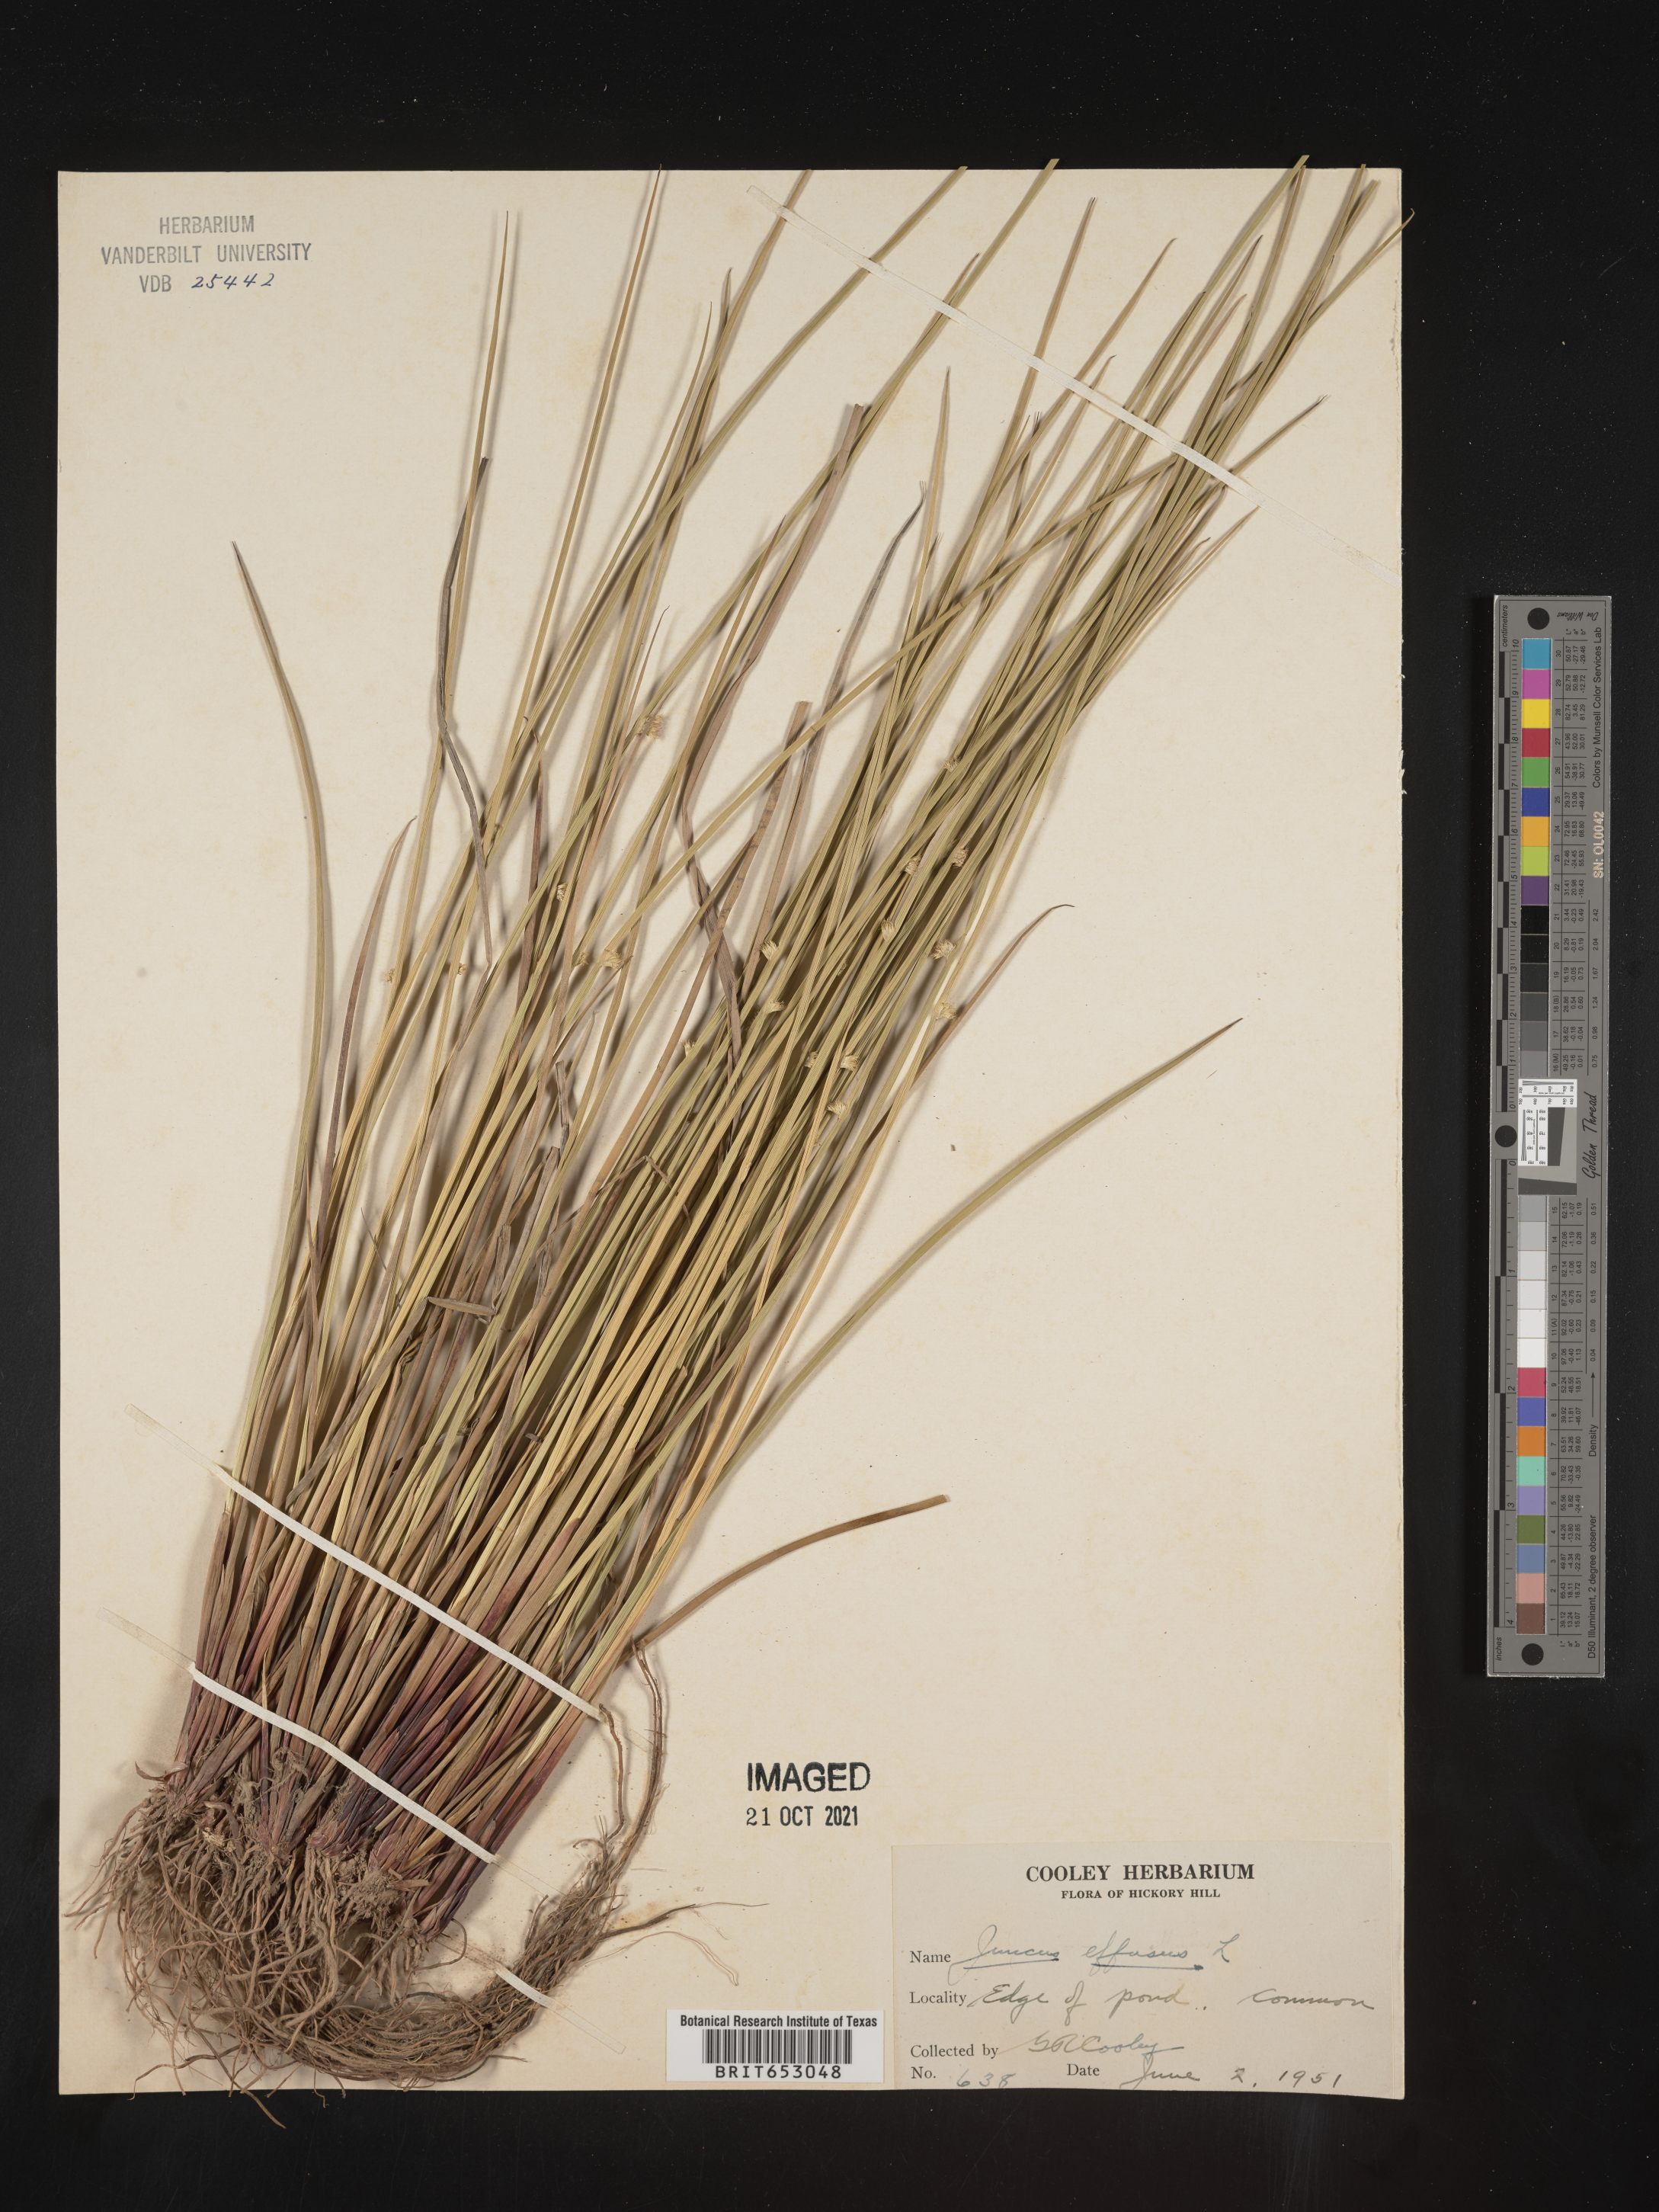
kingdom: Plantae
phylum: Tracheophyta
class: Liliopsida
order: Poales
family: Juncaceae
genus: Juncus
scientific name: Juncus effusus
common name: Soft rush
